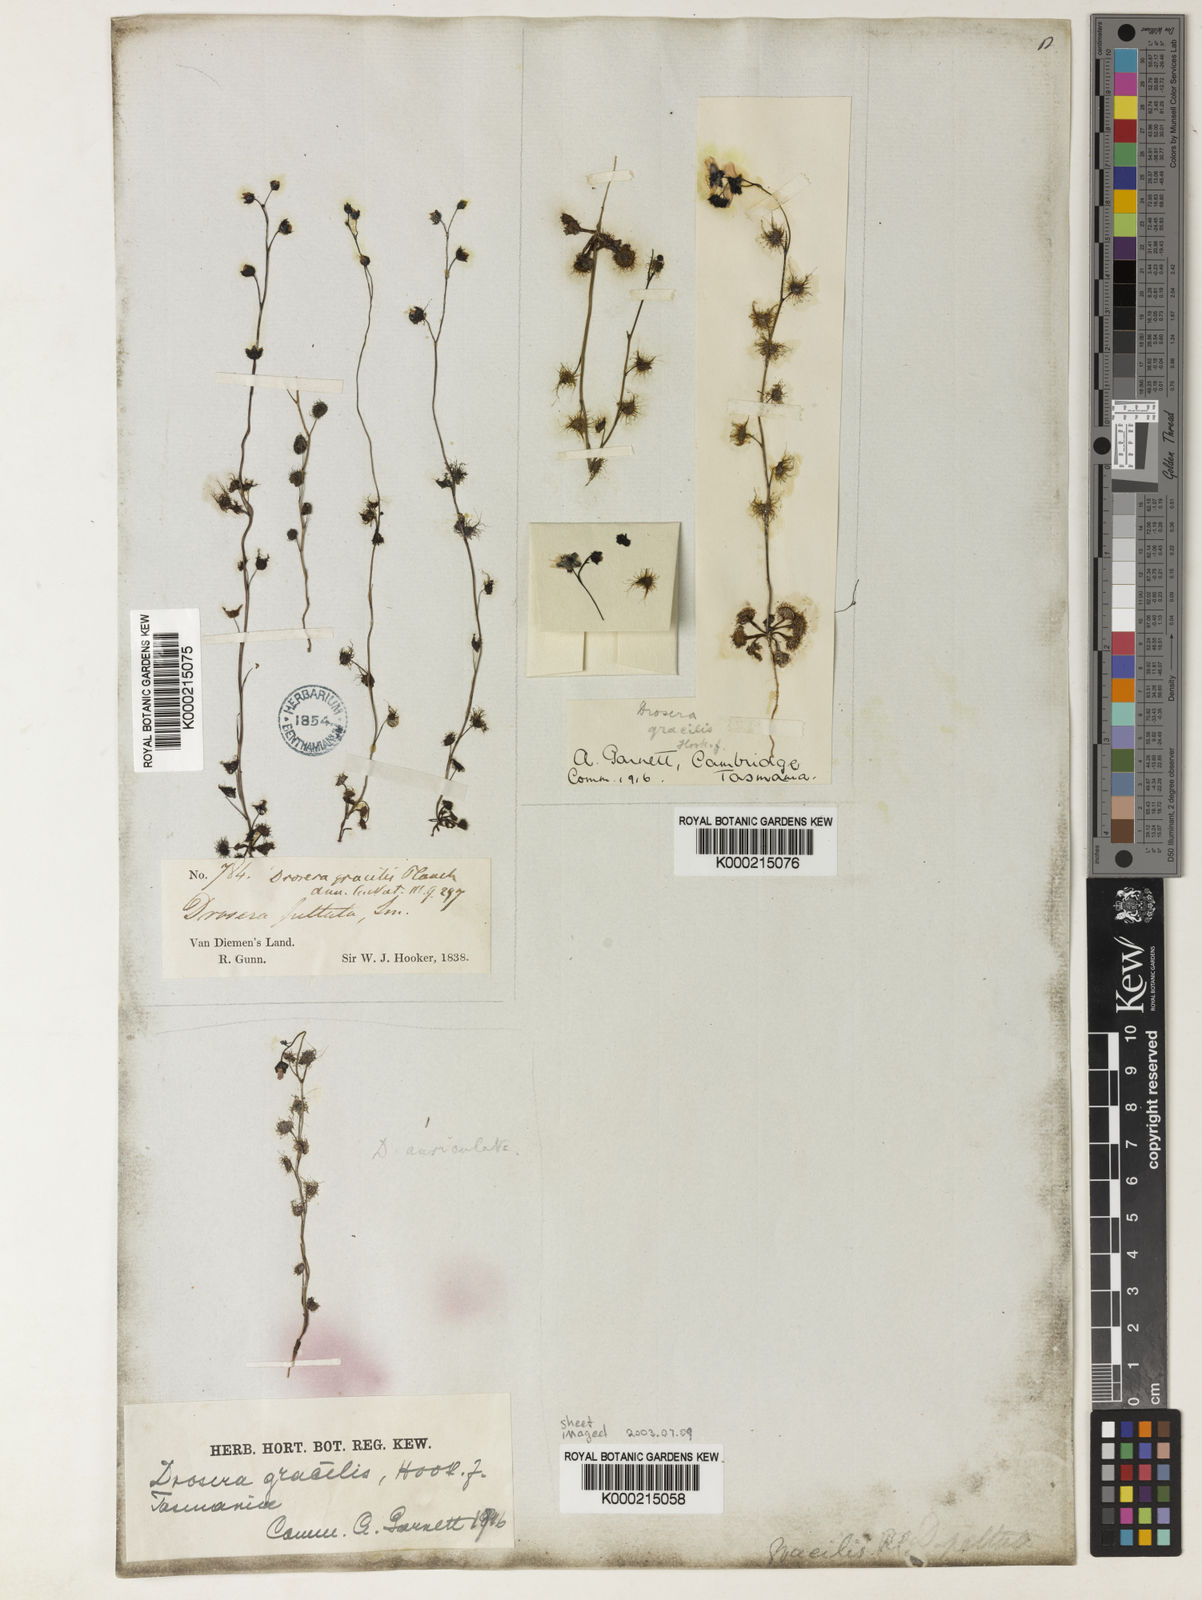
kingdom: Plantae
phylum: Tracheophyta
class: Magnoliopsida
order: Caryophyllales
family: Droseraceae
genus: Drosera
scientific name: Drosera peltata
